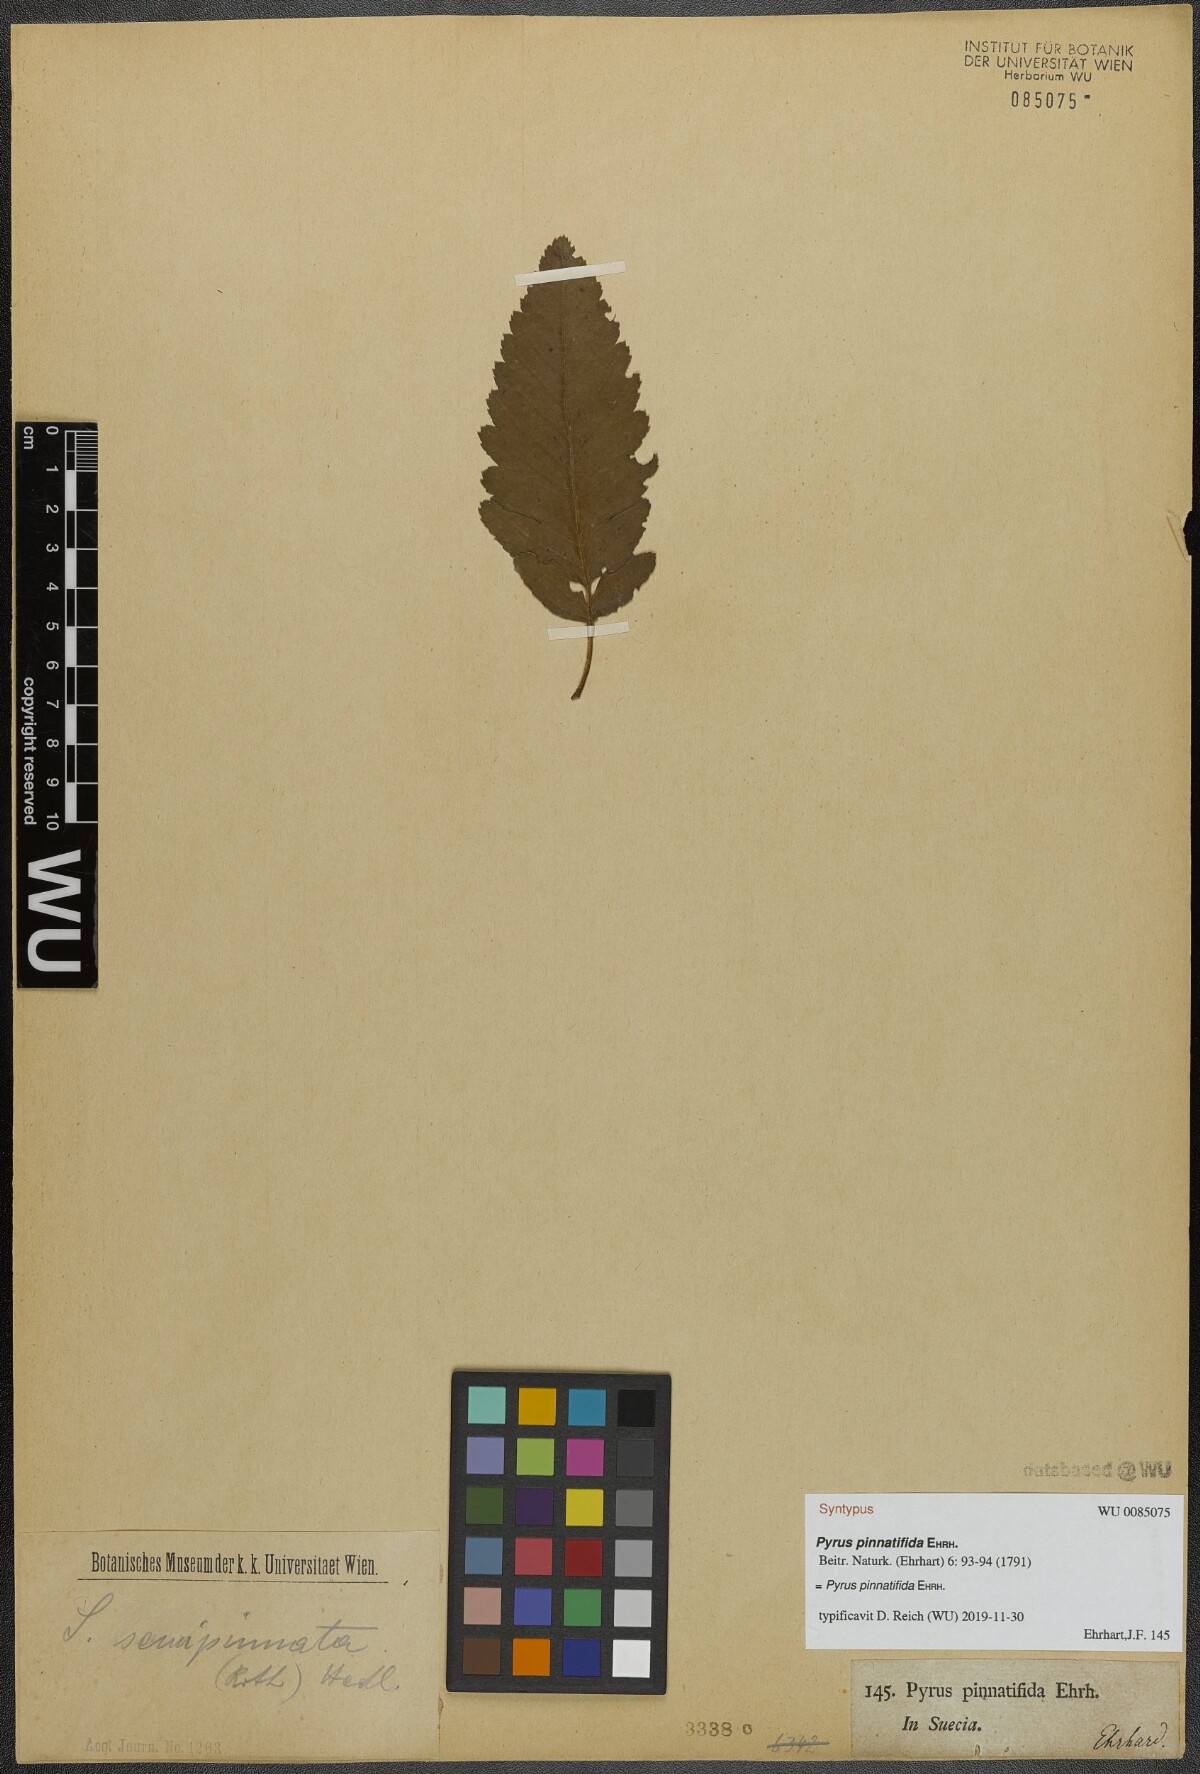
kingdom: Plantae
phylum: Tracheophyta
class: Magnoliopsida
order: Rosales
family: Rosaceae
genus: Hedlundia
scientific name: Hedlundia hybrida
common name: Swedish service-tree
